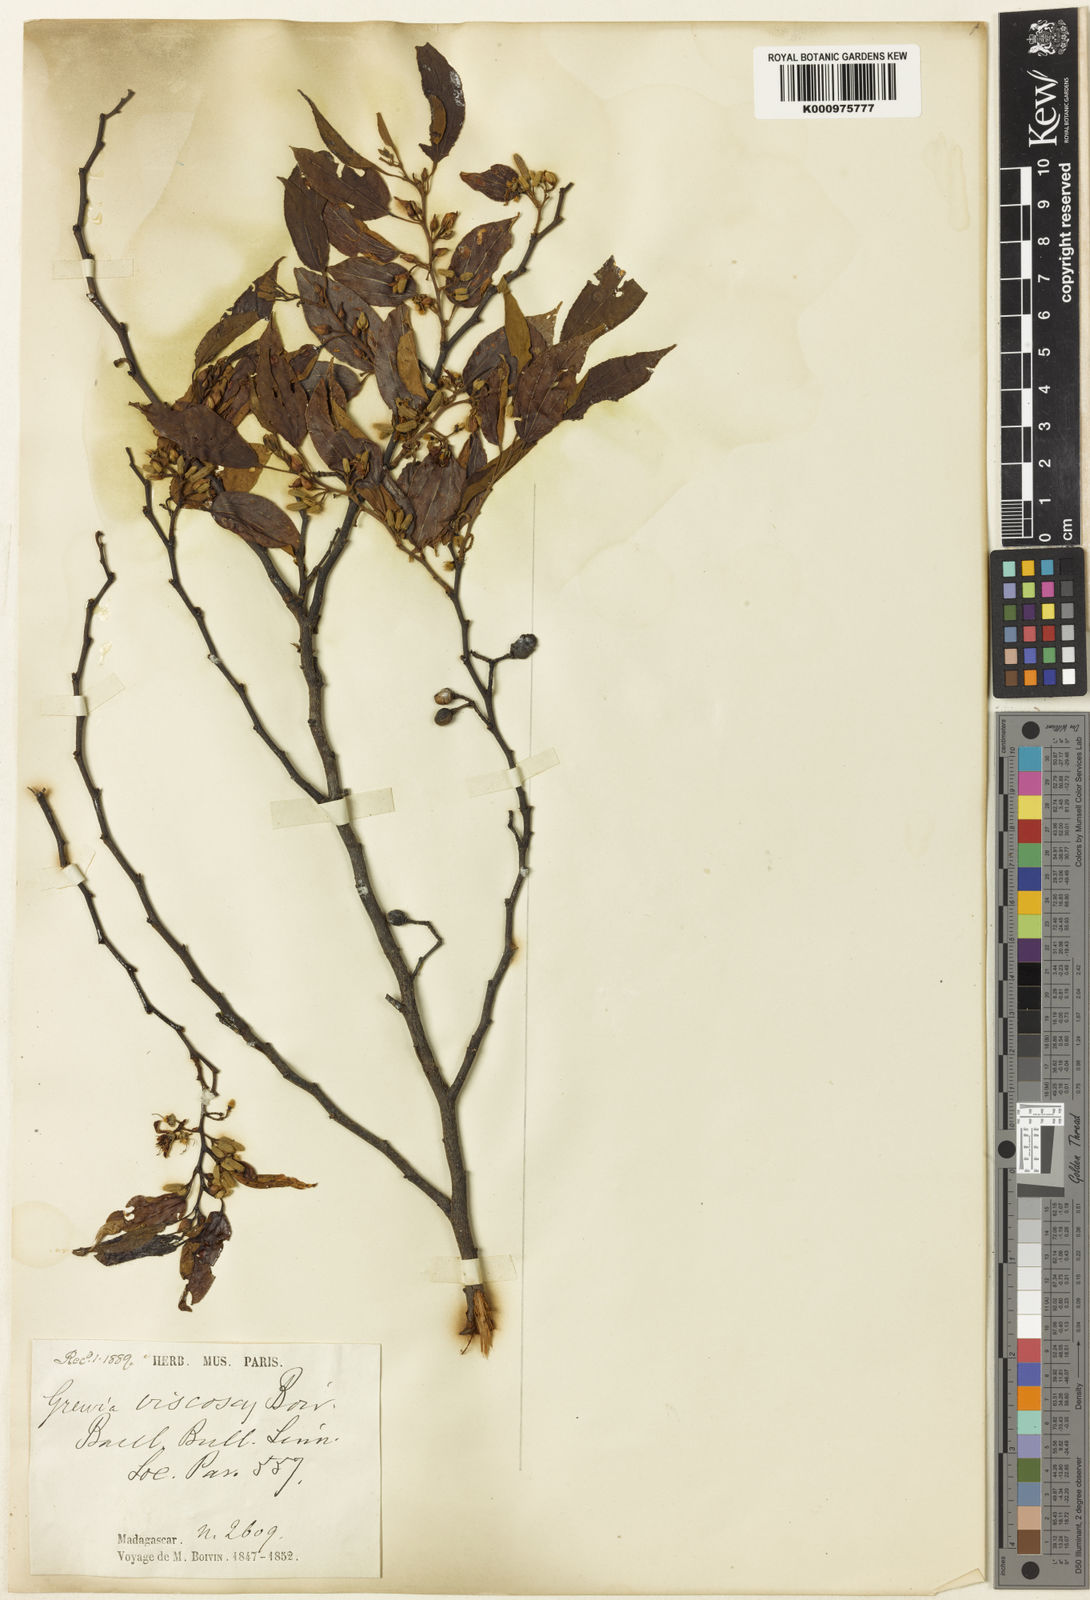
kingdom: Plantae
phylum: Tracheophyta
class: Magnoliopsida
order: Malvales
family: Malvaceae
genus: Grewia
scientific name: Grewia triflora
